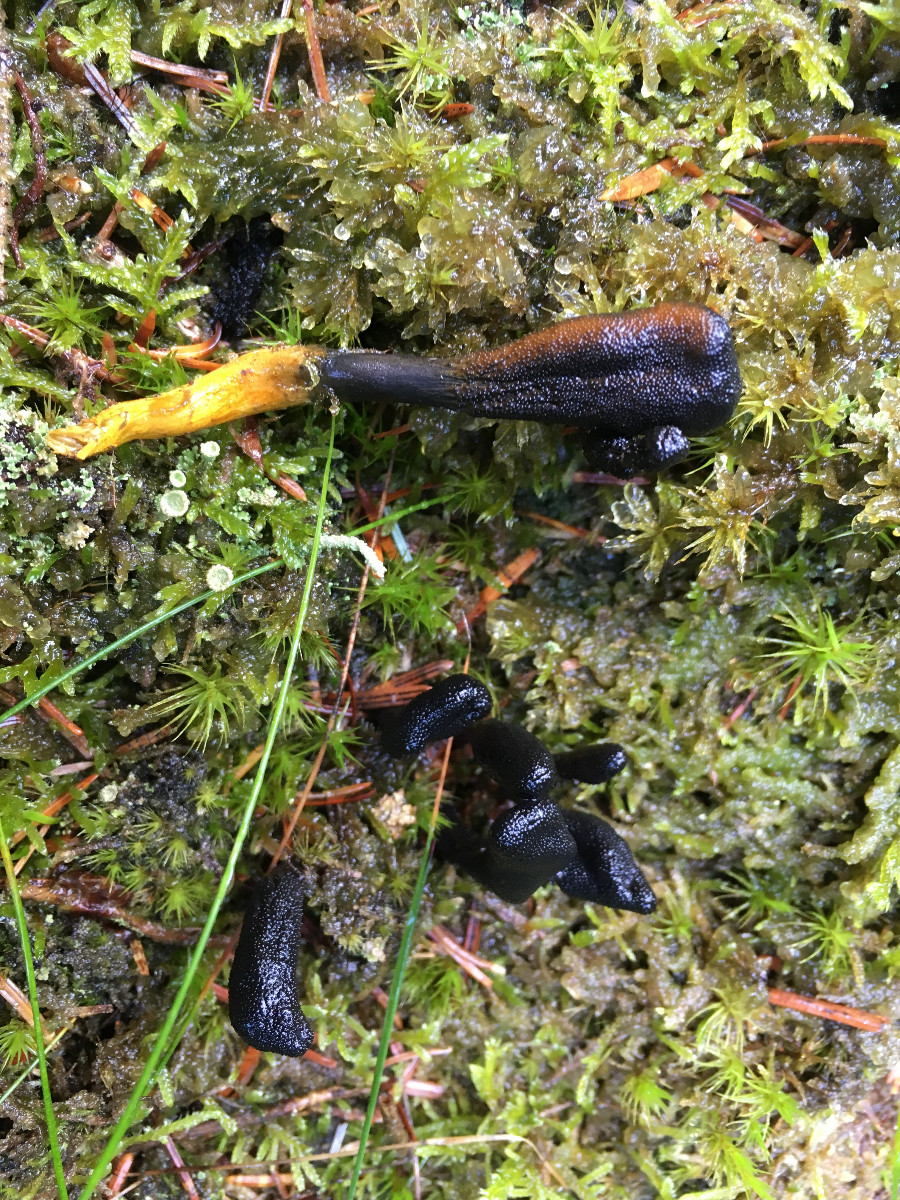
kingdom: Fungi
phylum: Ascomycota
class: Sordariomycetes
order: Hypocreales
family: Ophiocordycipitaceae
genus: Tolypocladium
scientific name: Tolypocladium ophioglossoides
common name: slank snyltekølle
